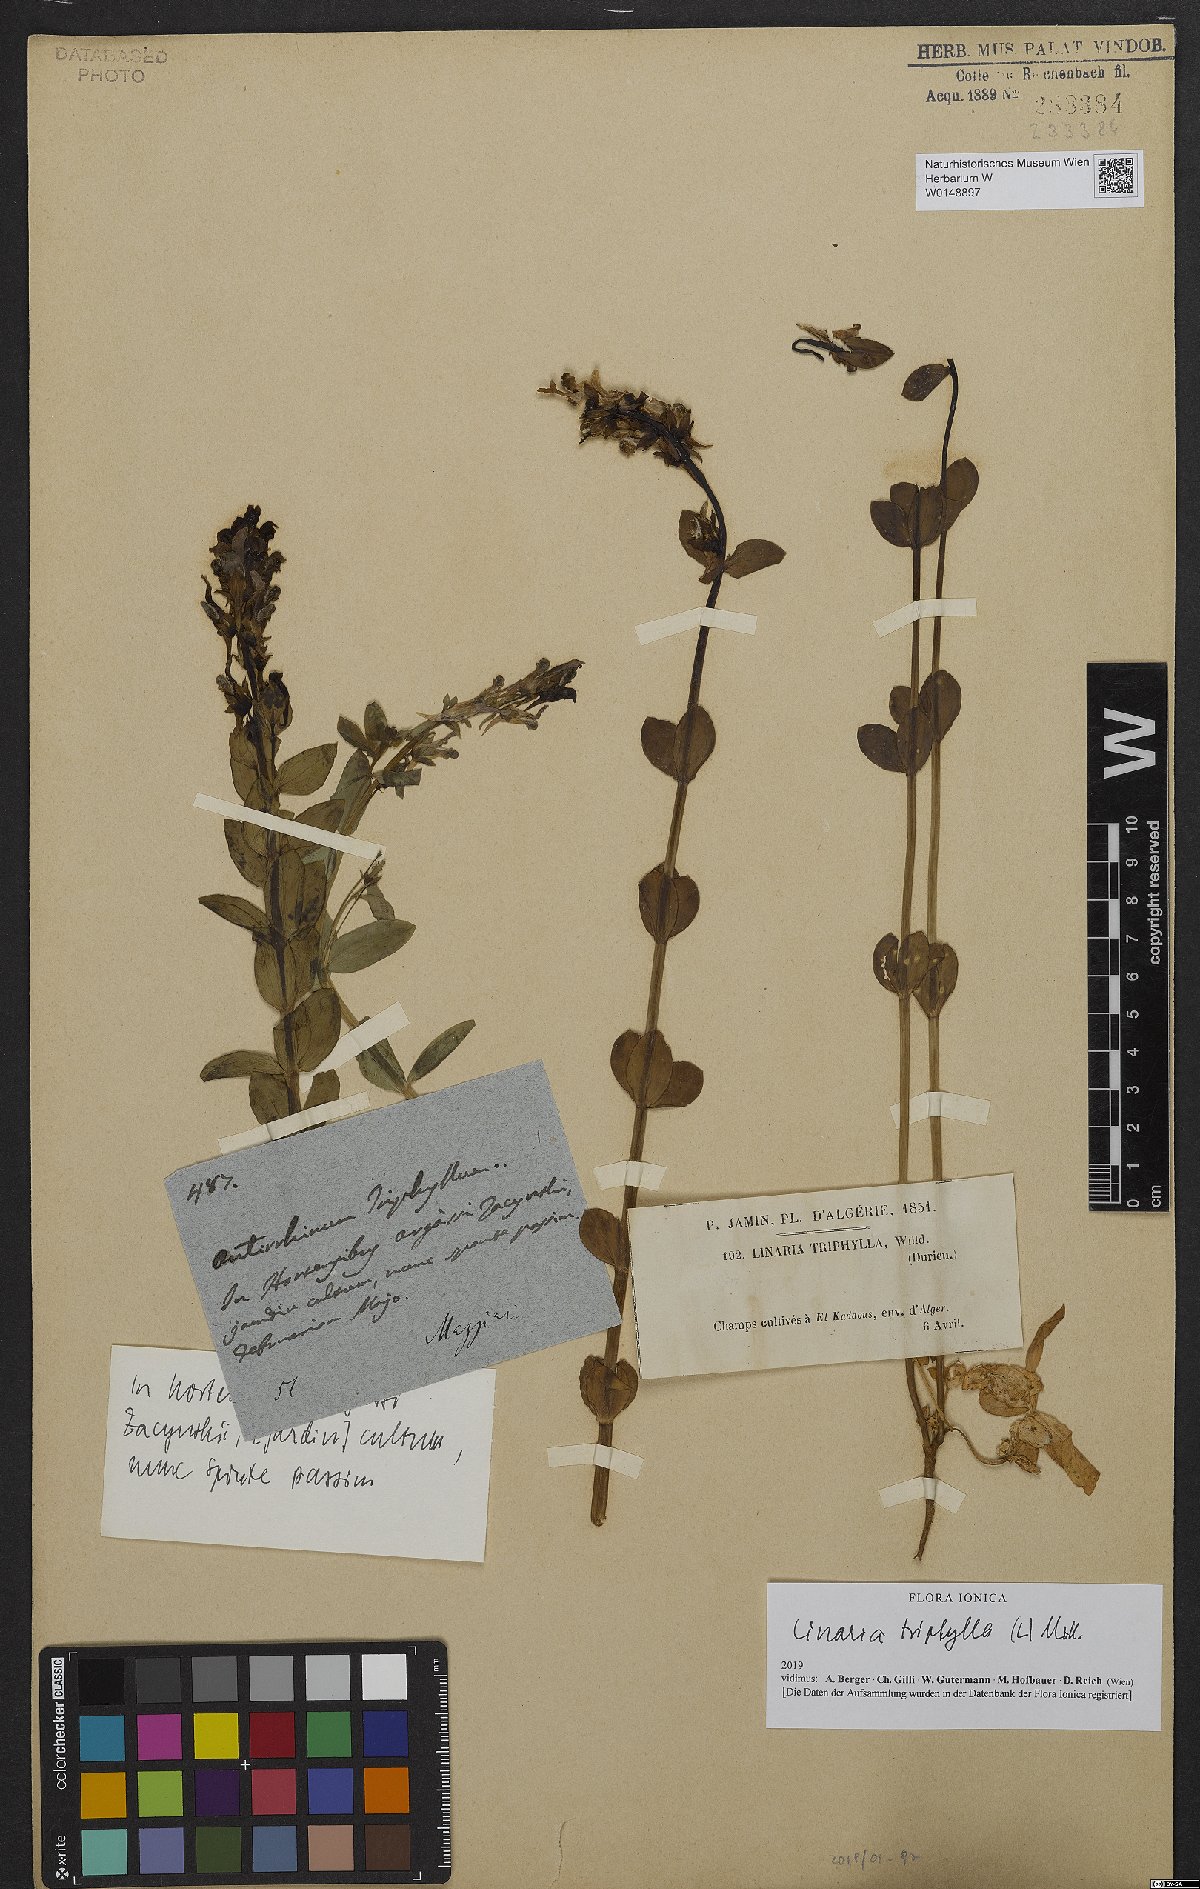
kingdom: Plantae
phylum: Tracheophyta
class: Magnoliopsida
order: Lamiales
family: Plantaginaceae
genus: Linaria
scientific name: Linaria triphylla
